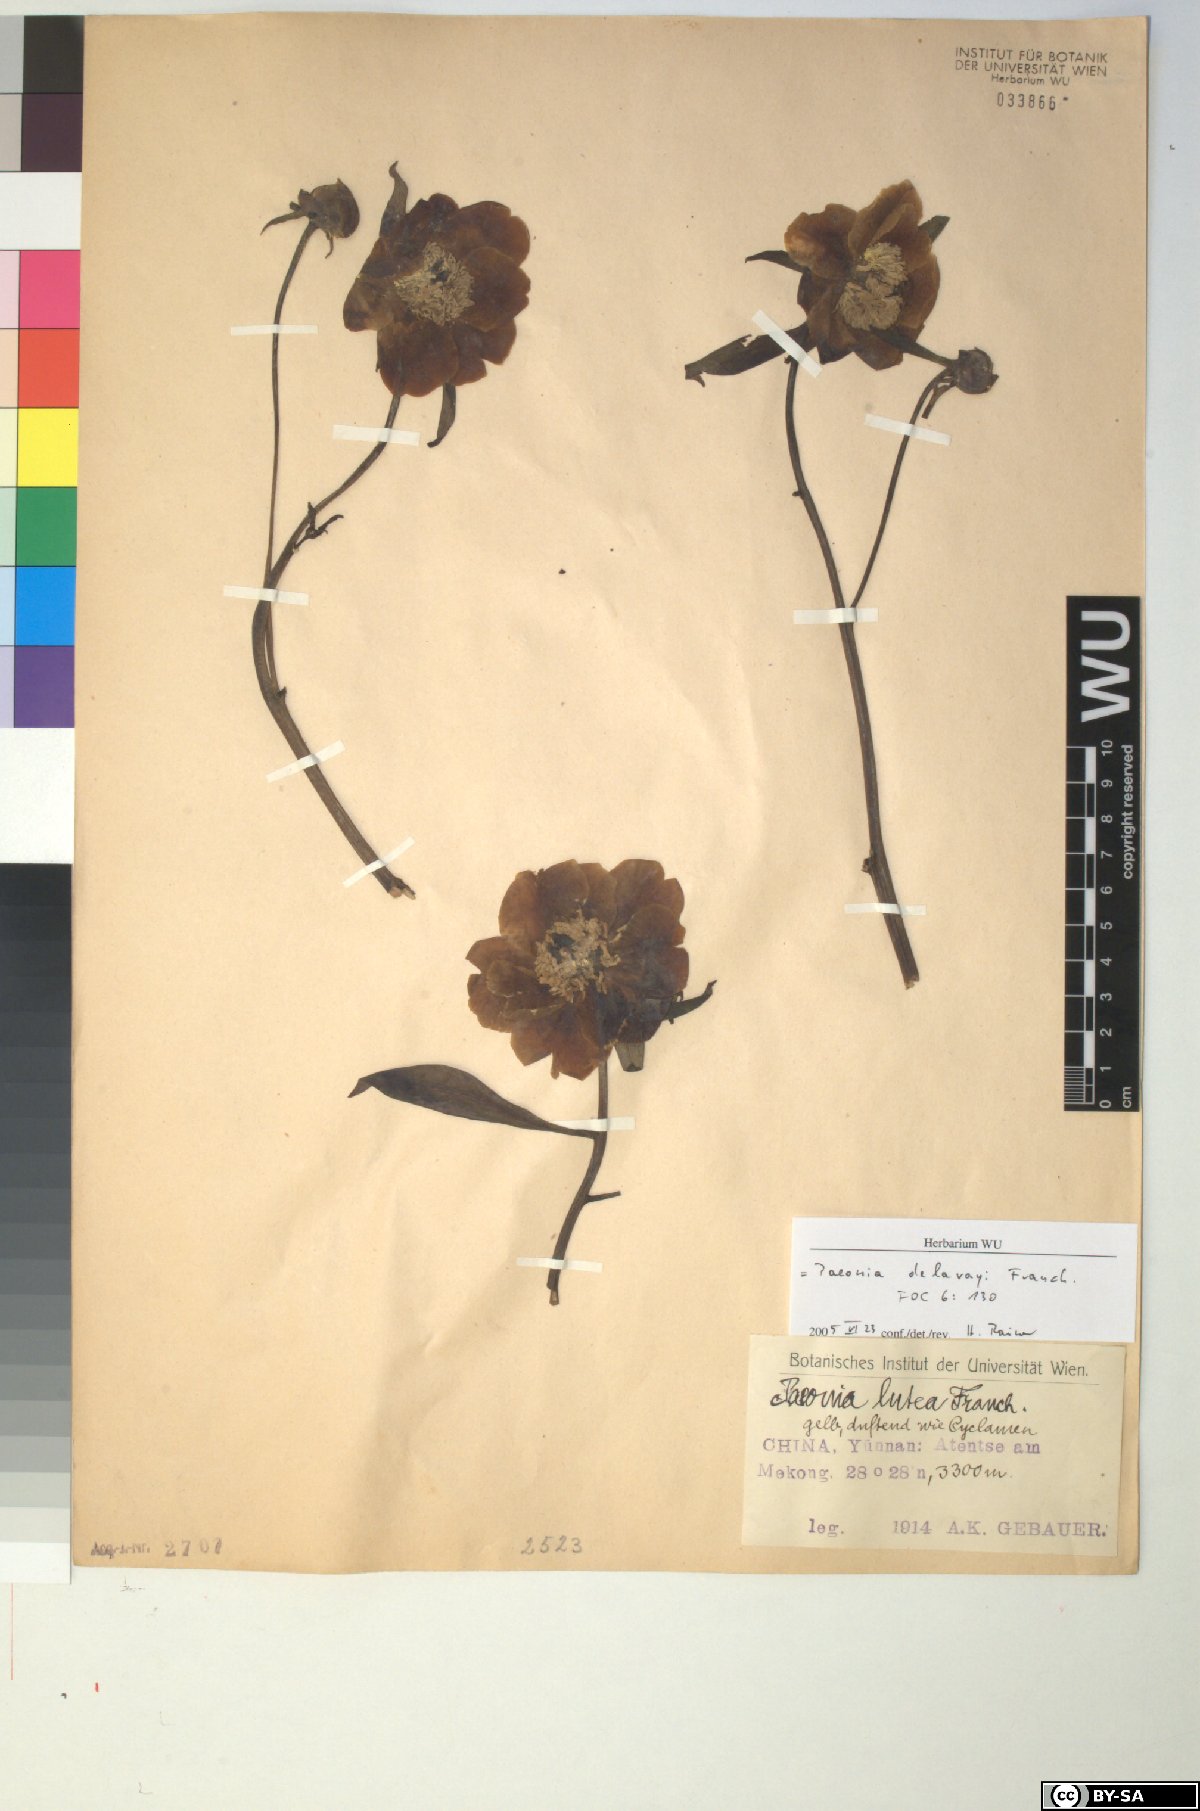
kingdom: Plantae
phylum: Tracheophyta
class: Magnoliopsida
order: Saxifragales
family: Paeoniaceae
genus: Paeonia
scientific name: Paeonia delavayi
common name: Dian mu dan
